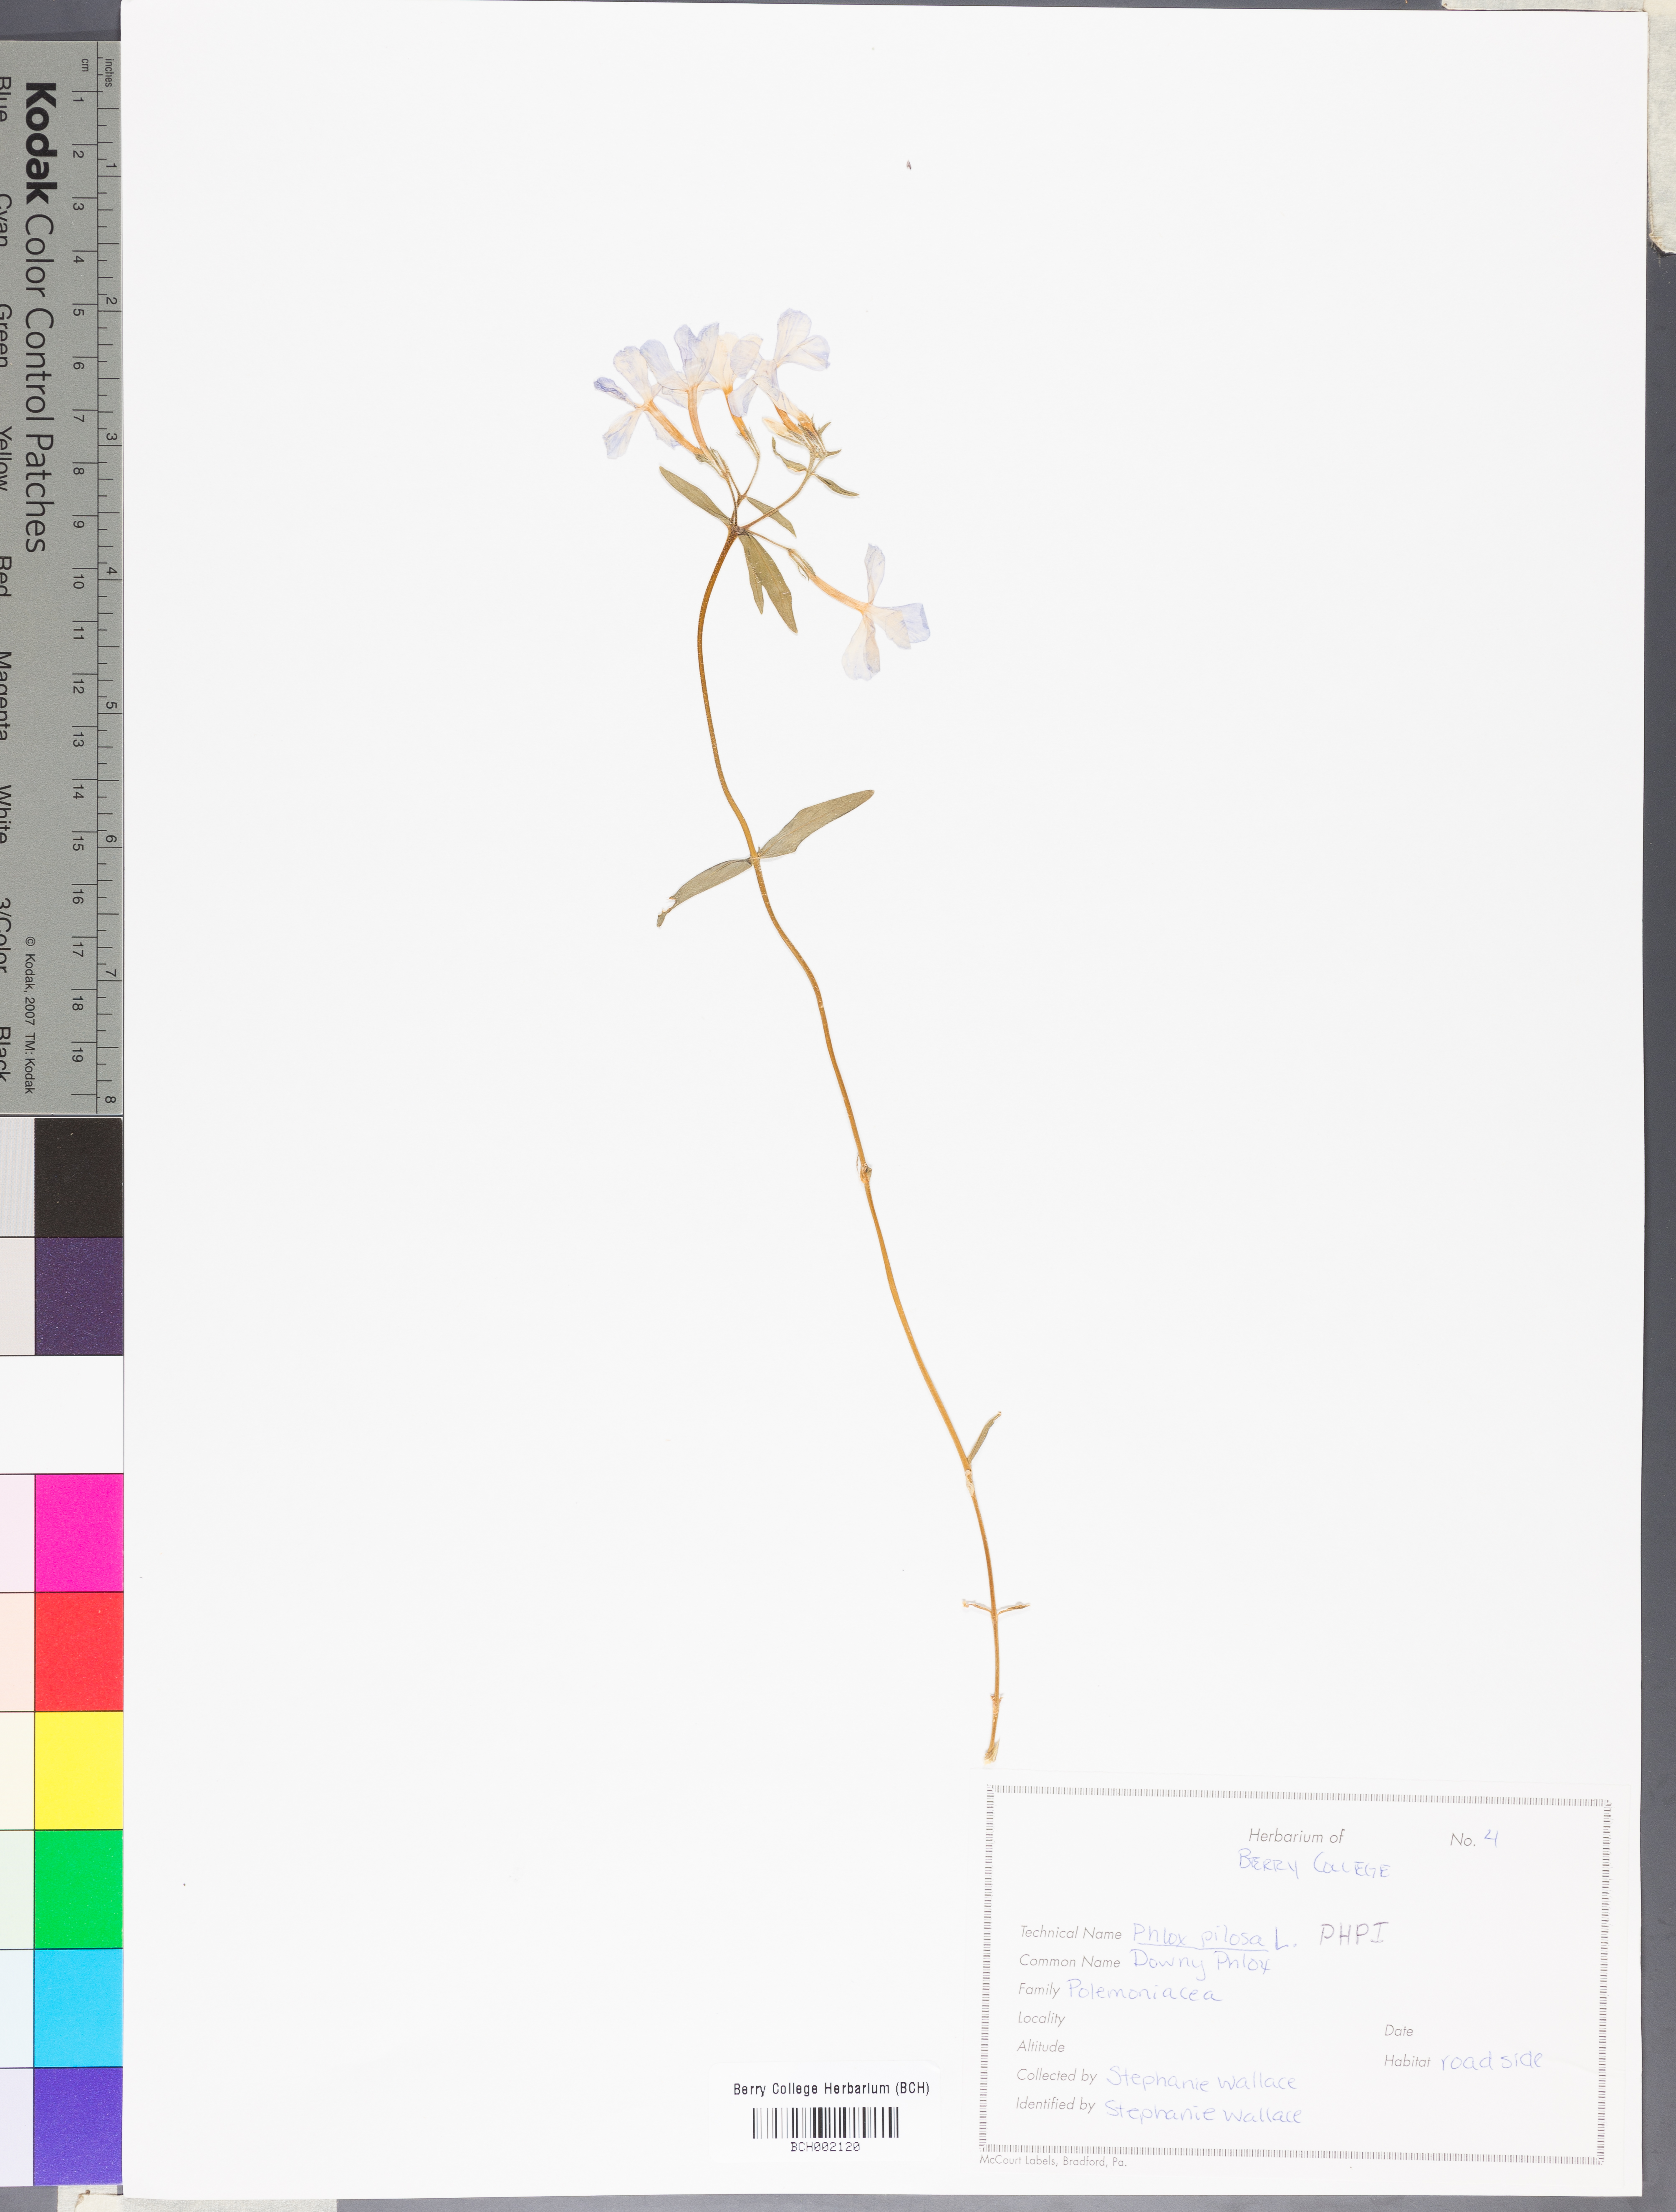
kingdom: Plantae
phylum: Tracheophyta
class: Magnoliopsida
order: Ericales
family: Polemoniaceae
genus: Phlox
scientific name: Phlox pilosa
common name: Prairie phlox
